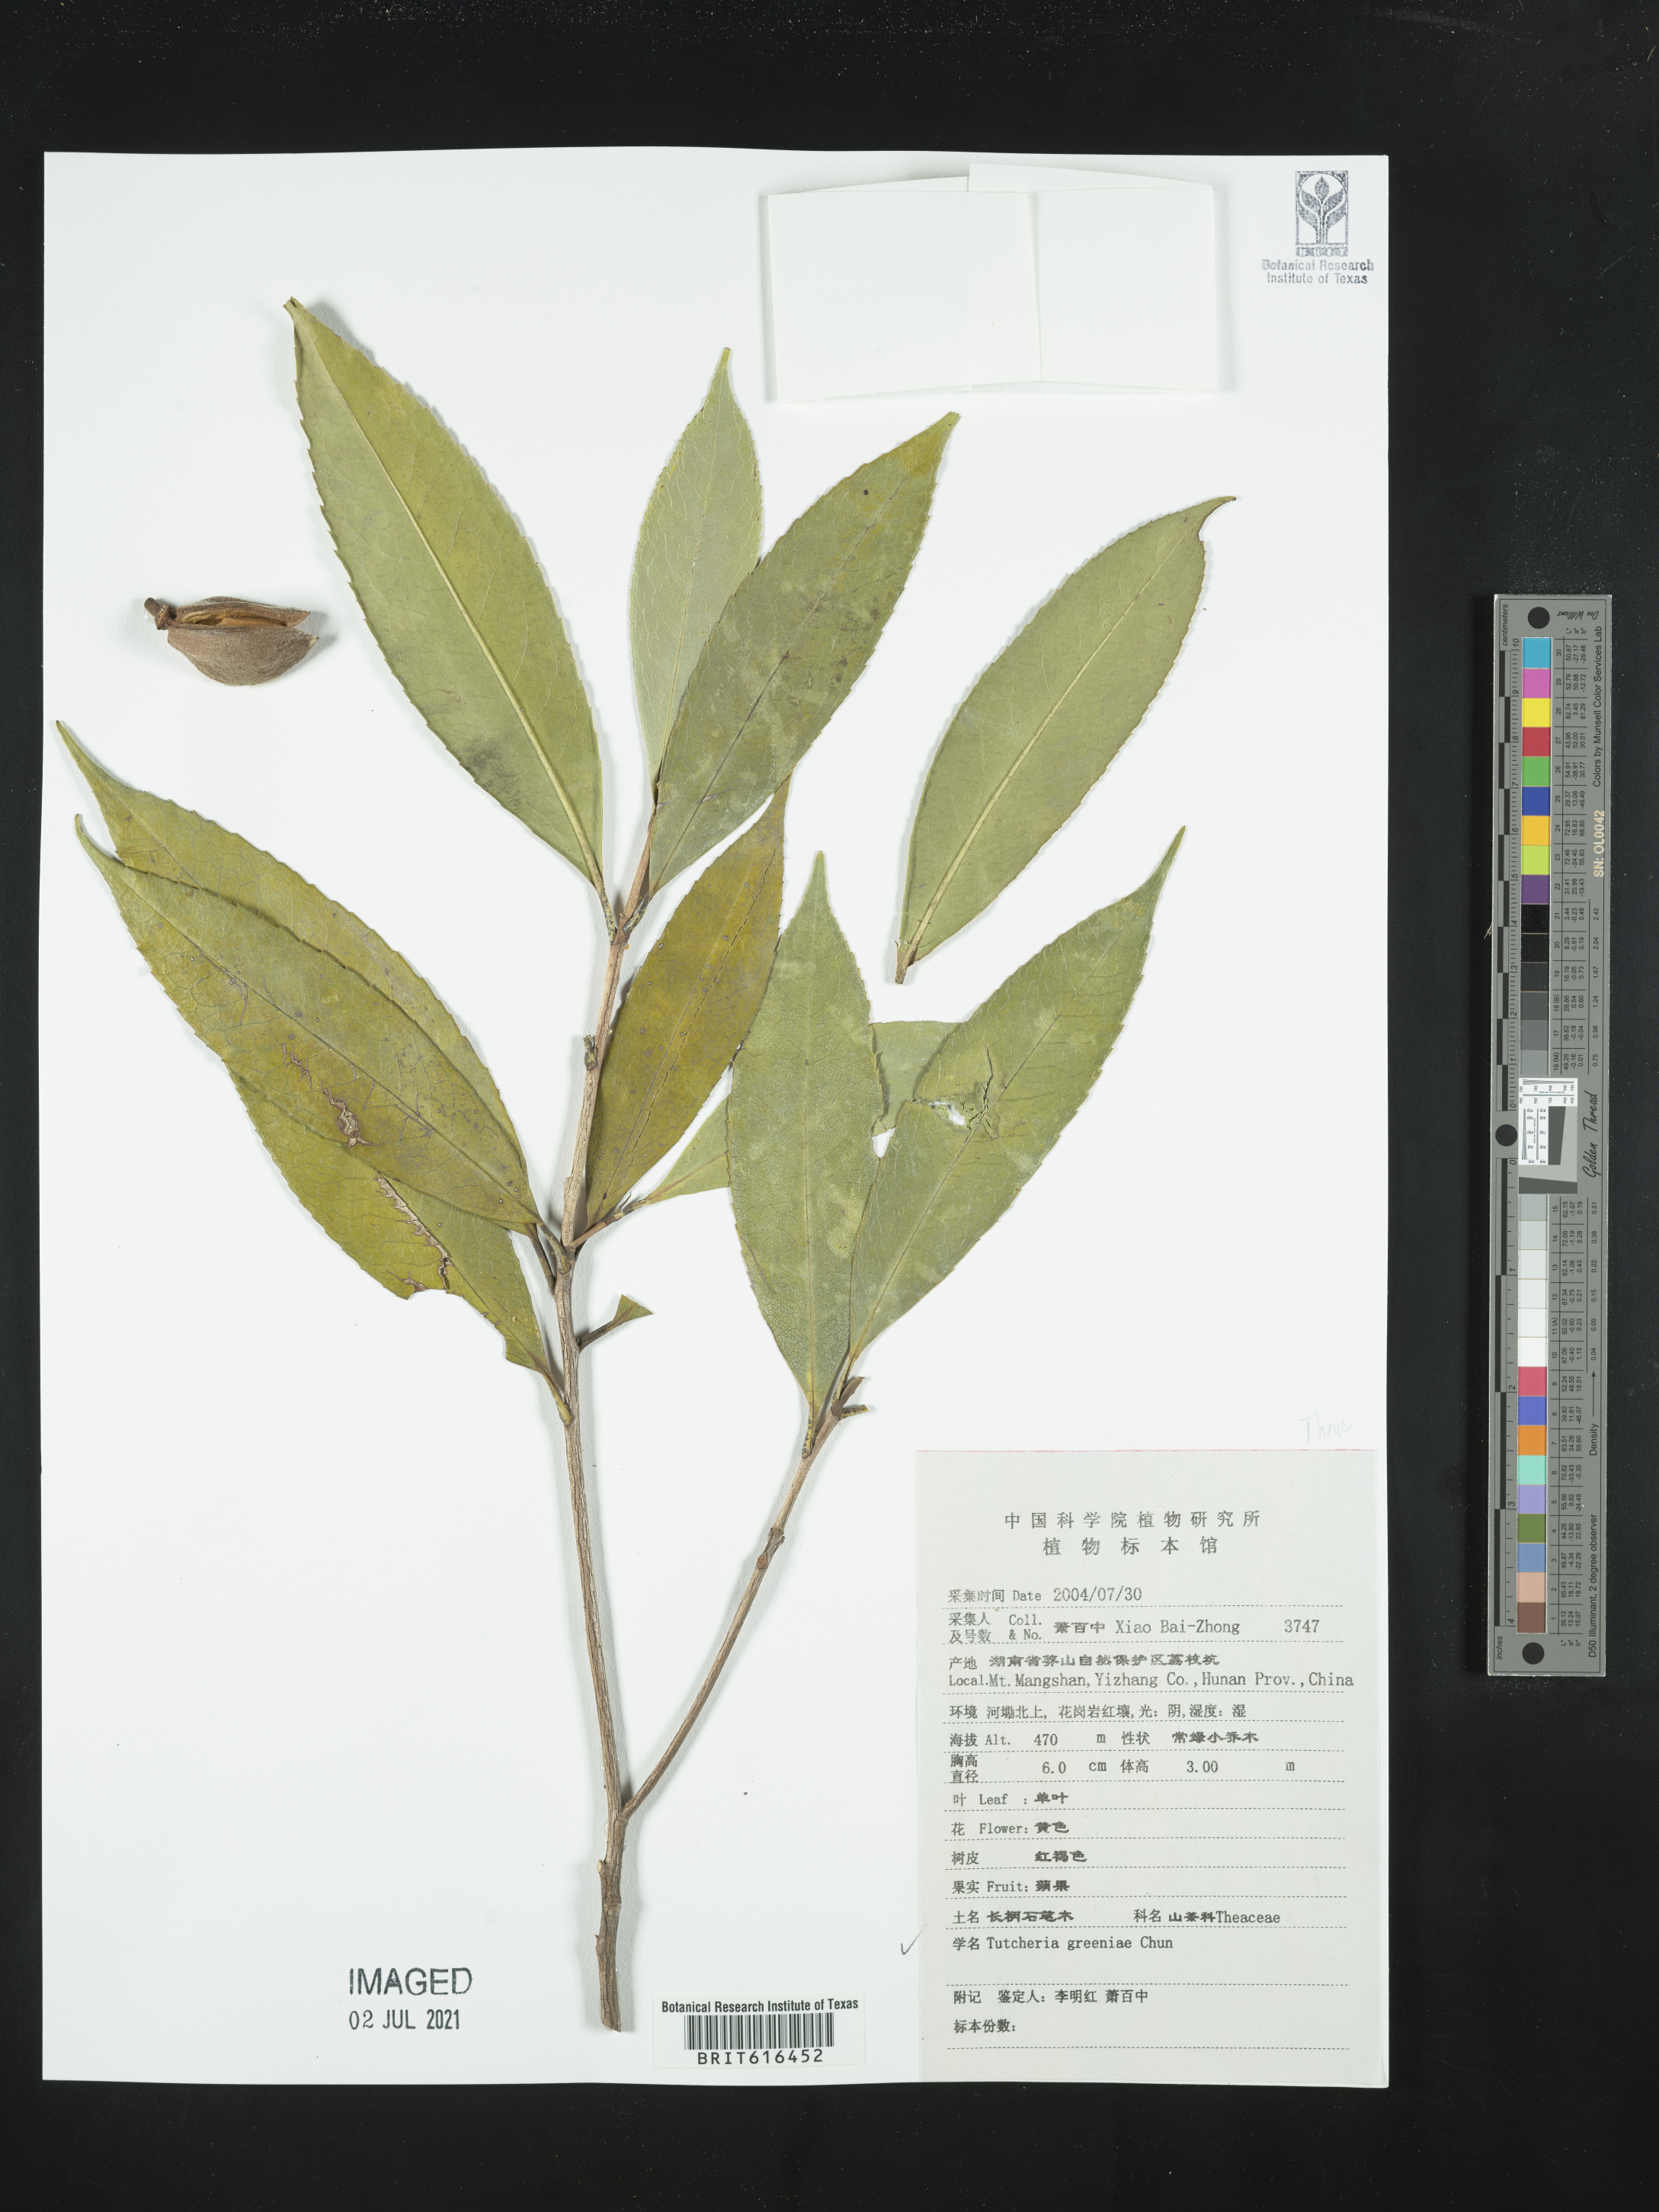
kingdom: Plantae
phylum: Tracheophyta
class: Magnoliopsida
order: Ericales
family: Theaceae
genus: Pyrenaria
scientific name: Pyrenaria spectabilis
